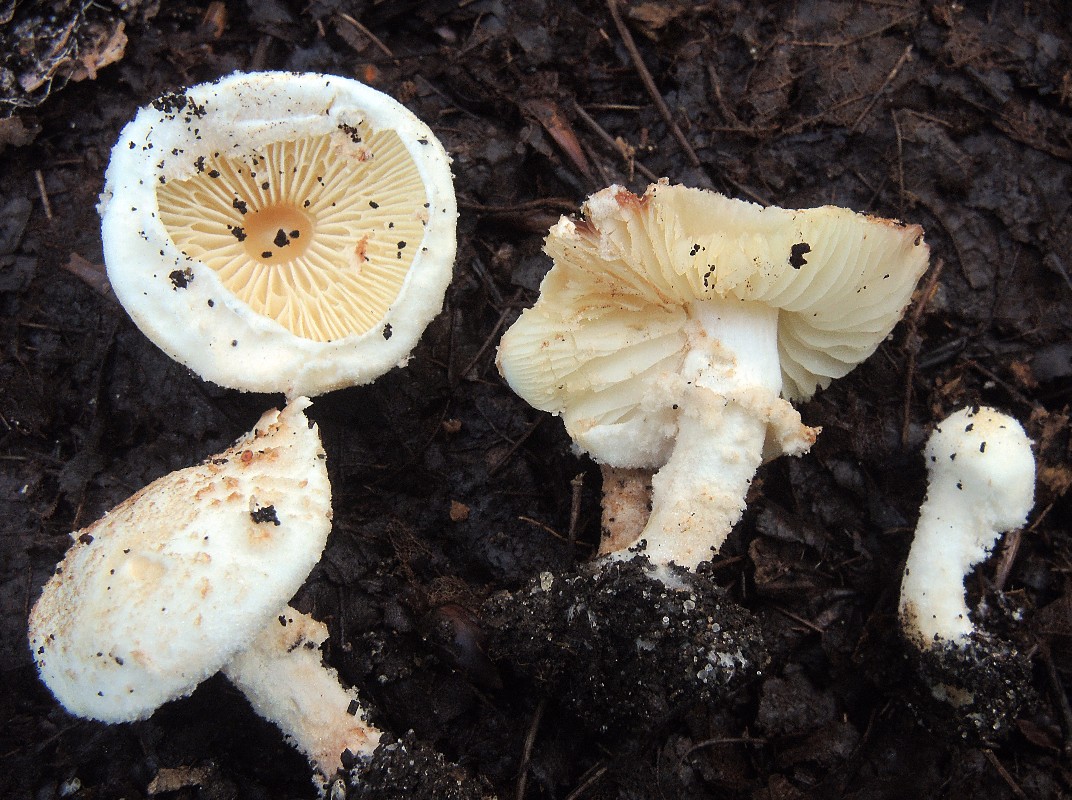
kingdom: Fungi
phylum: Basidiomycota
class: Agaricomycetes
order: Agaricales
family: Agaricaceae
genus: Cystolepiota
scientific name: Cystolepiota hetieri
